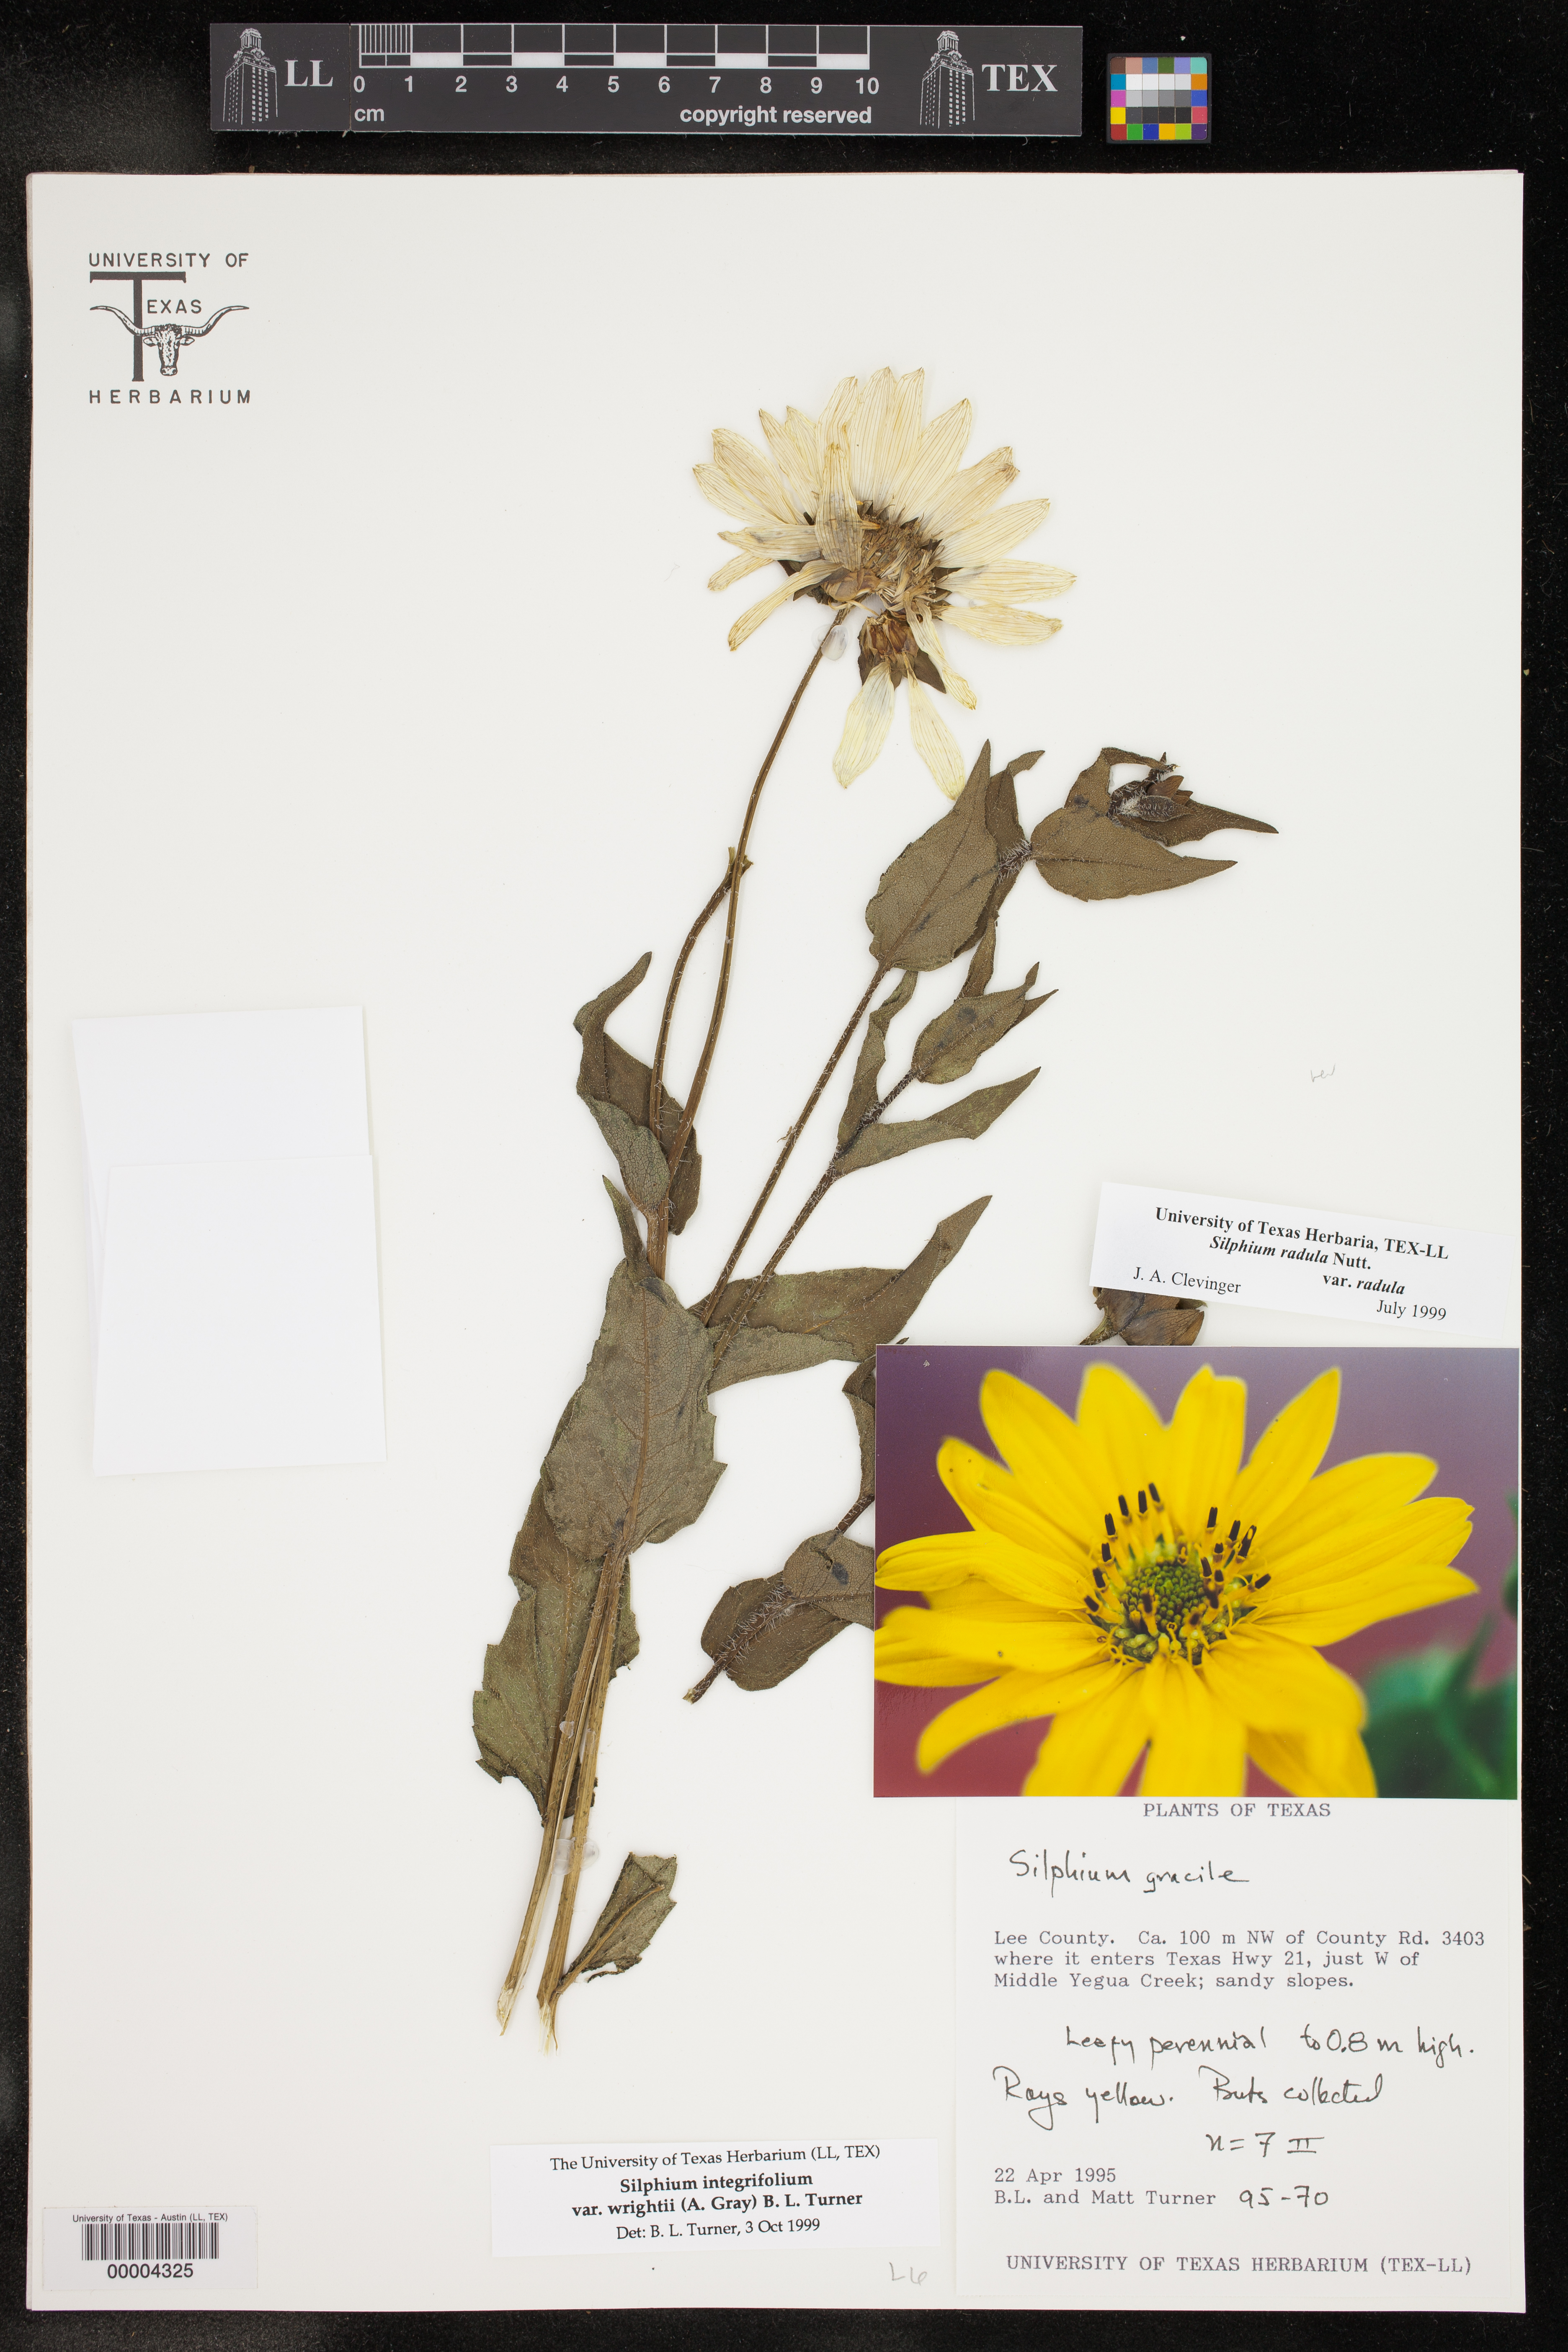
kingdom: Plantae
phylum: Tracheophyta
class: Magnoliopsida
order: Asterales
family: Asteraceae
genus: Silphium
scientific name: Silphium radula
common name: Roughleaf rosinweed
